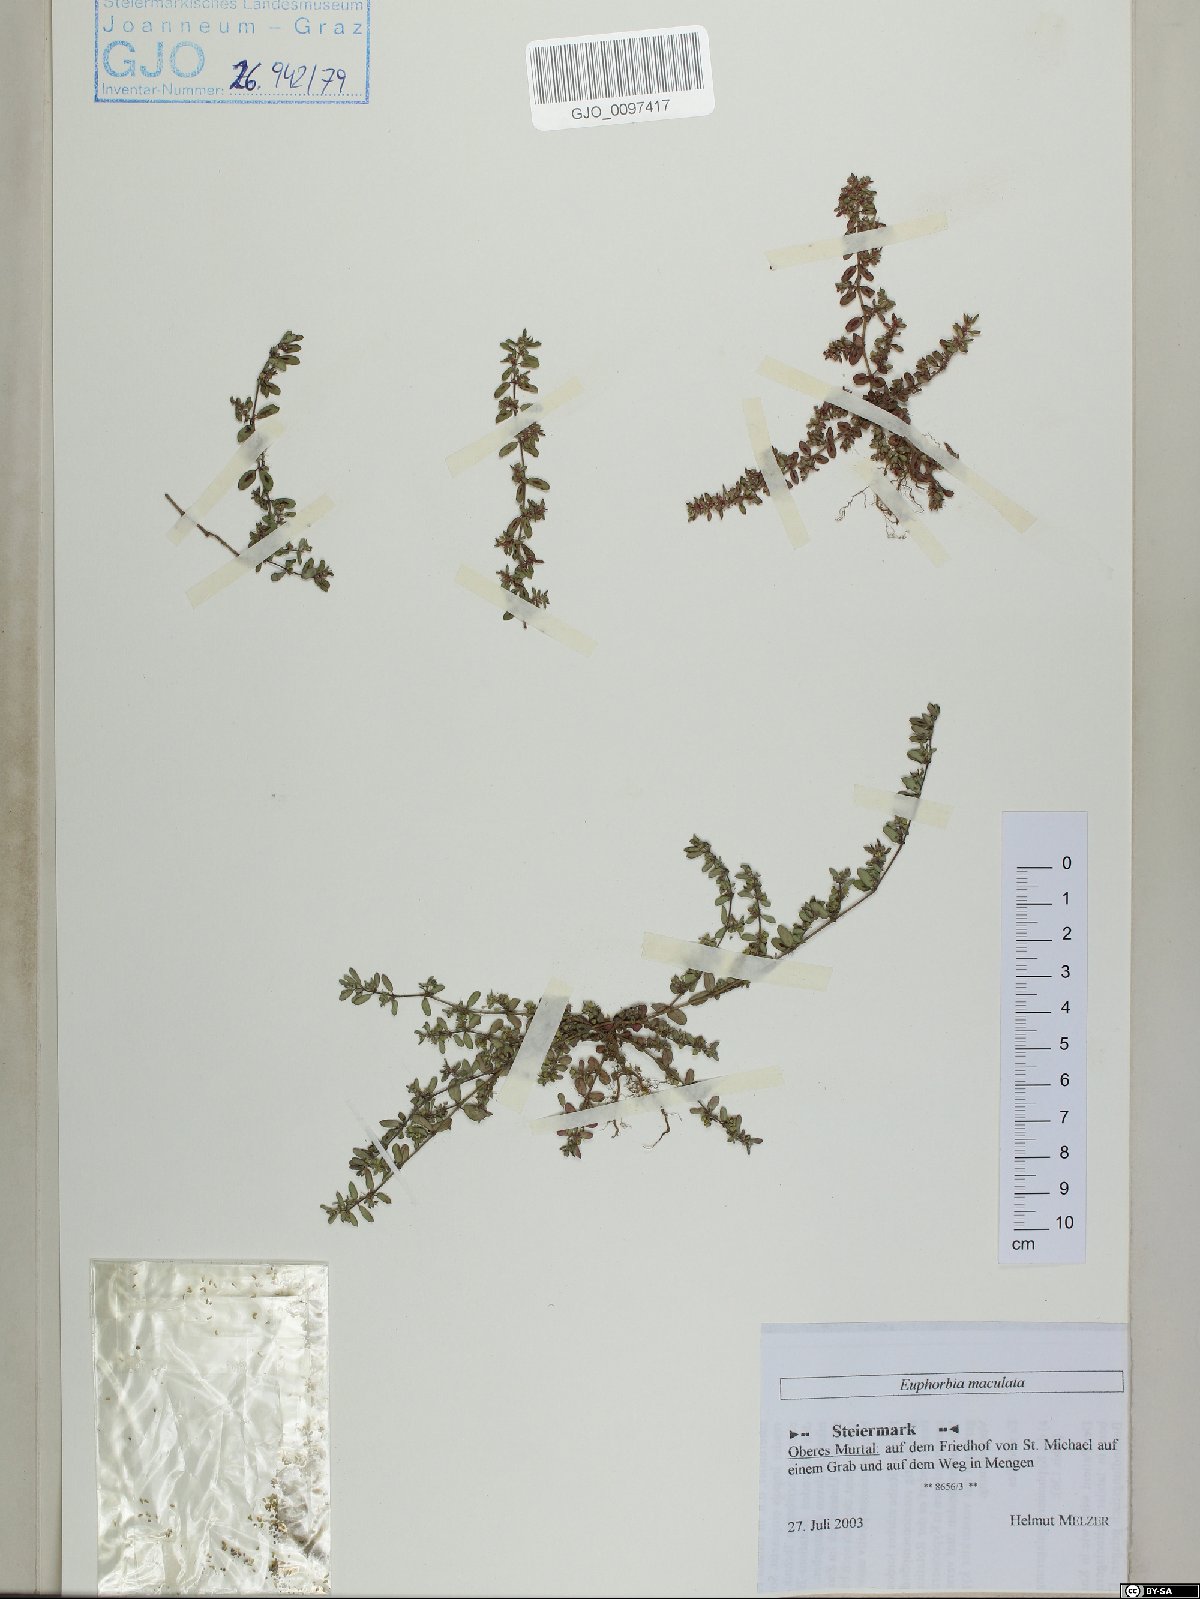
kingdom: Plantae
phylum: Tracheophyta
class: Magnoliopsida
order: Malpighiales
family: Euphorbiaceae
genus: Euphorbia
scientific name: Euphorbia maculata
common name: Spotted spurge
